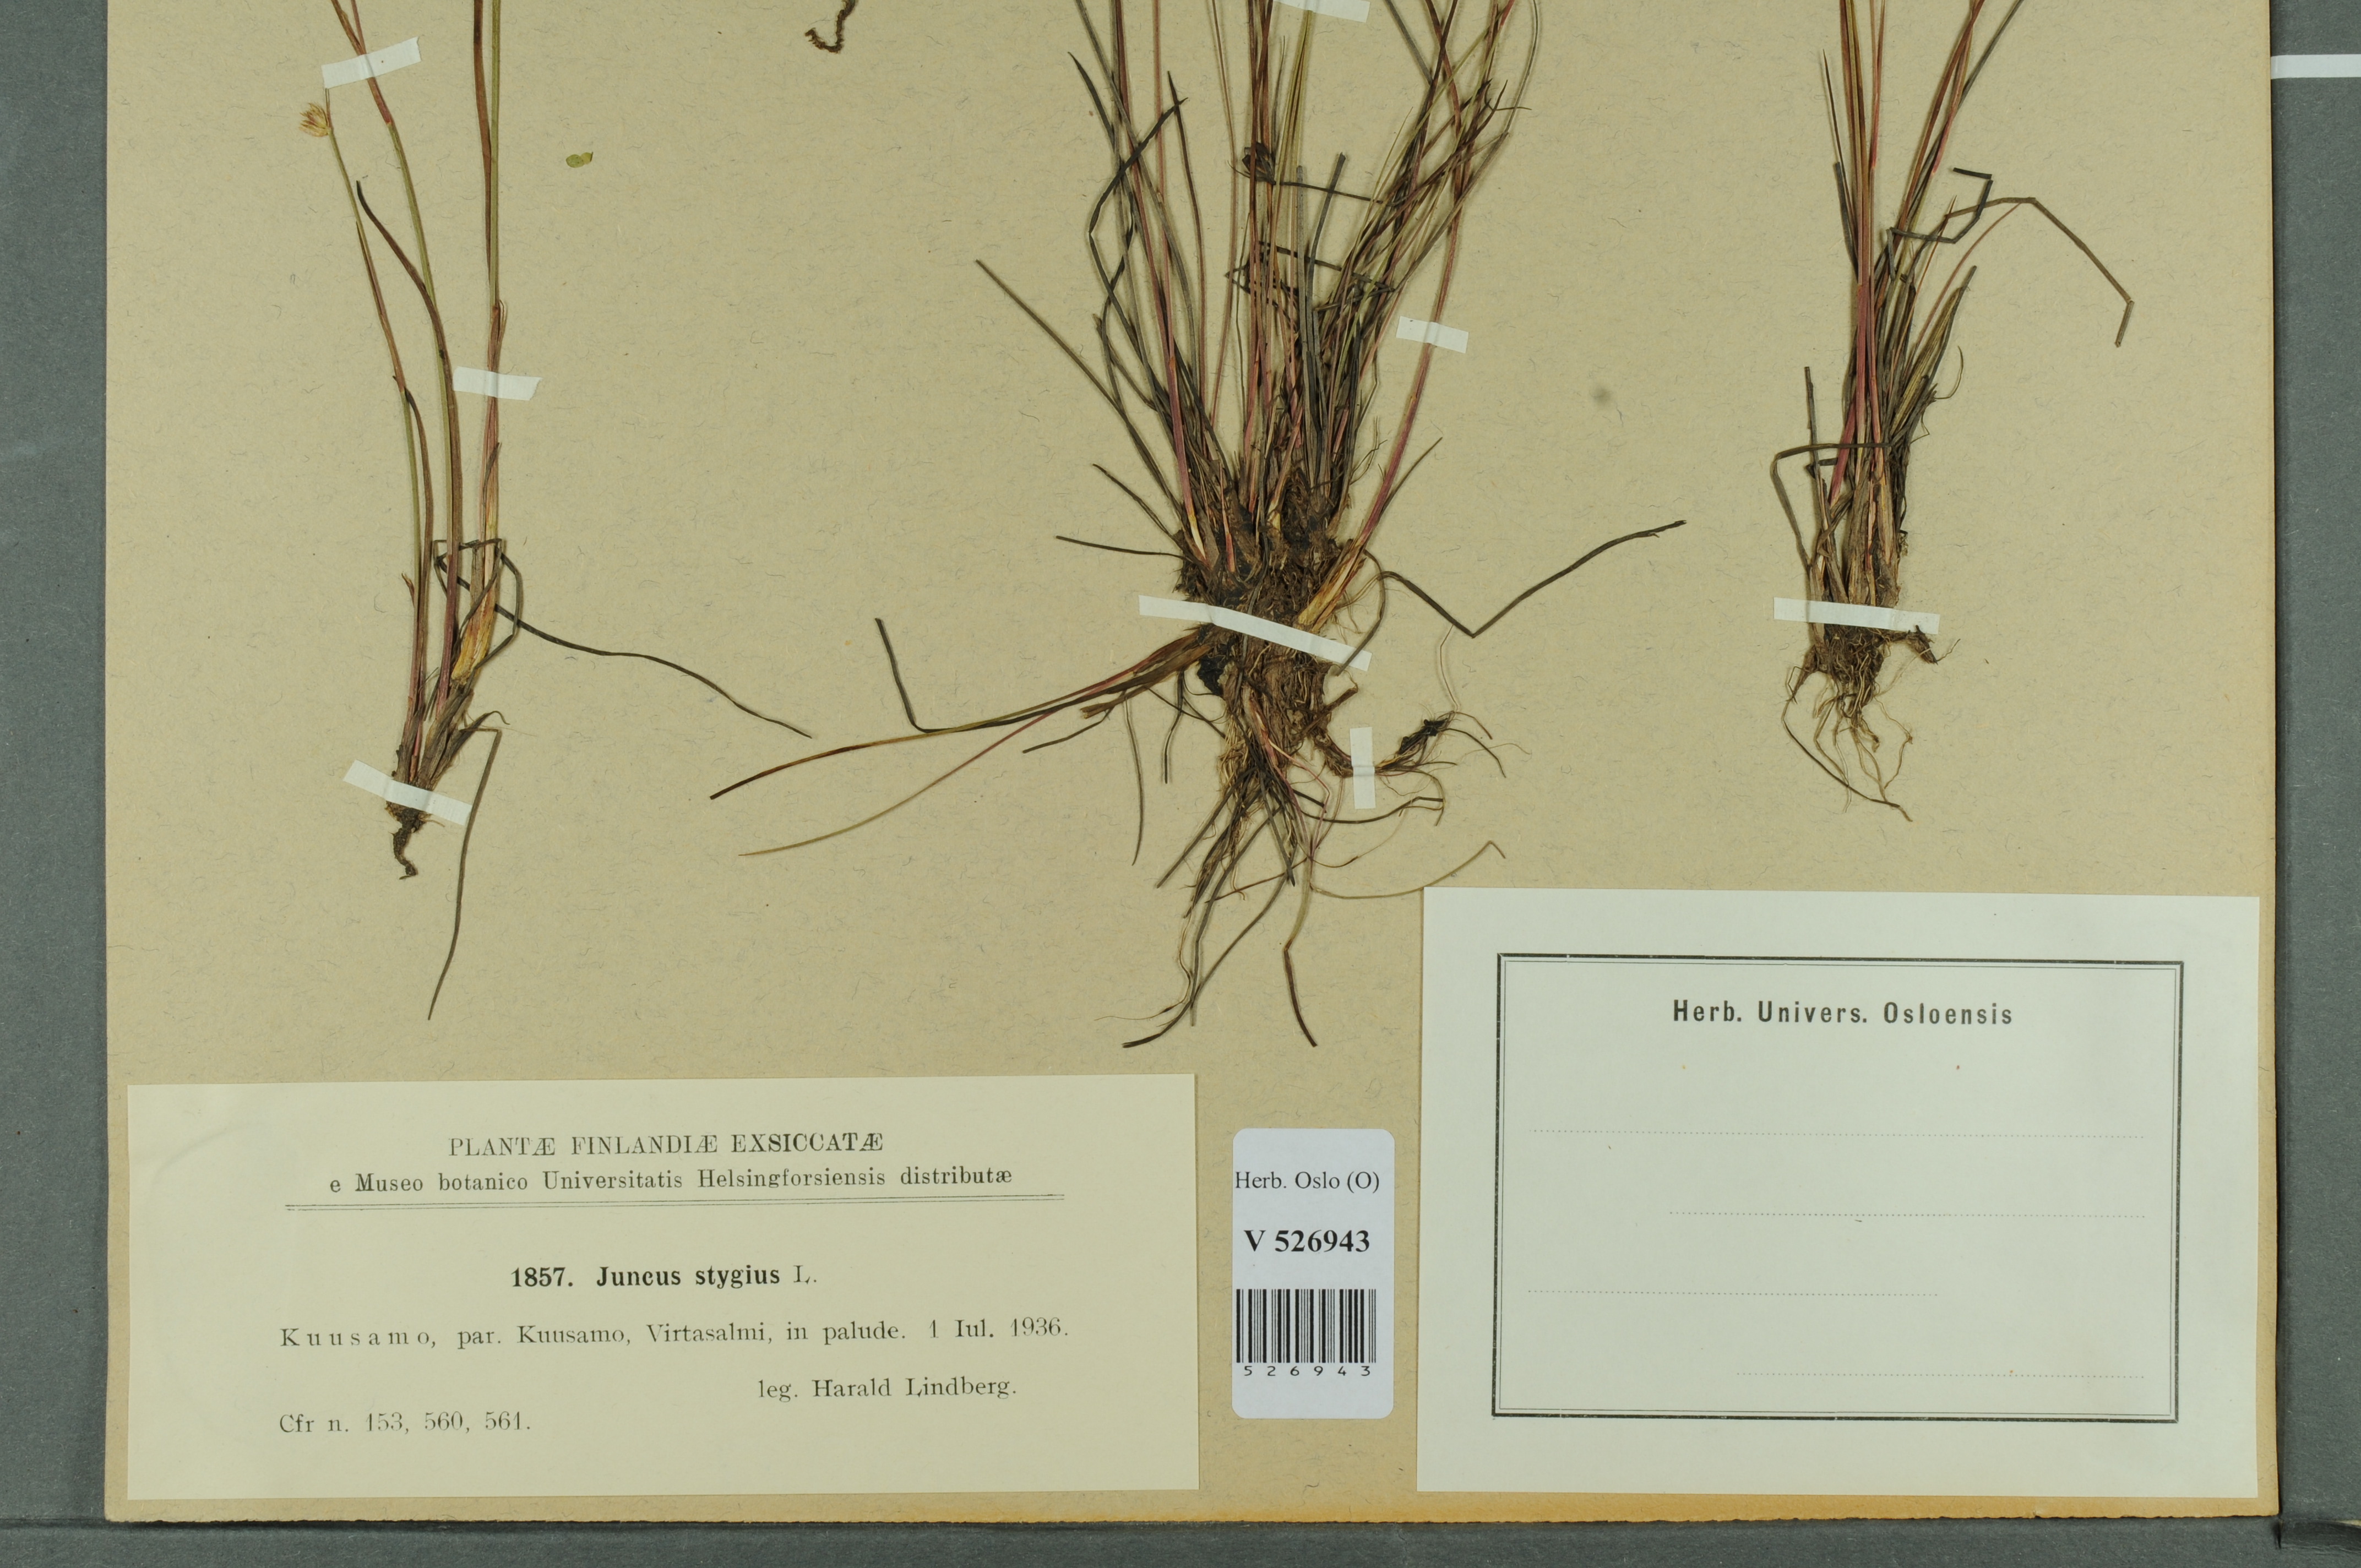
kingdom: Plantae
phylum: Tracheophyta
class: Liliopsida
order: Poales
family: Juncaceae
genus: Juncus
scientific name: Juncus stygius
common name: Bog rush
